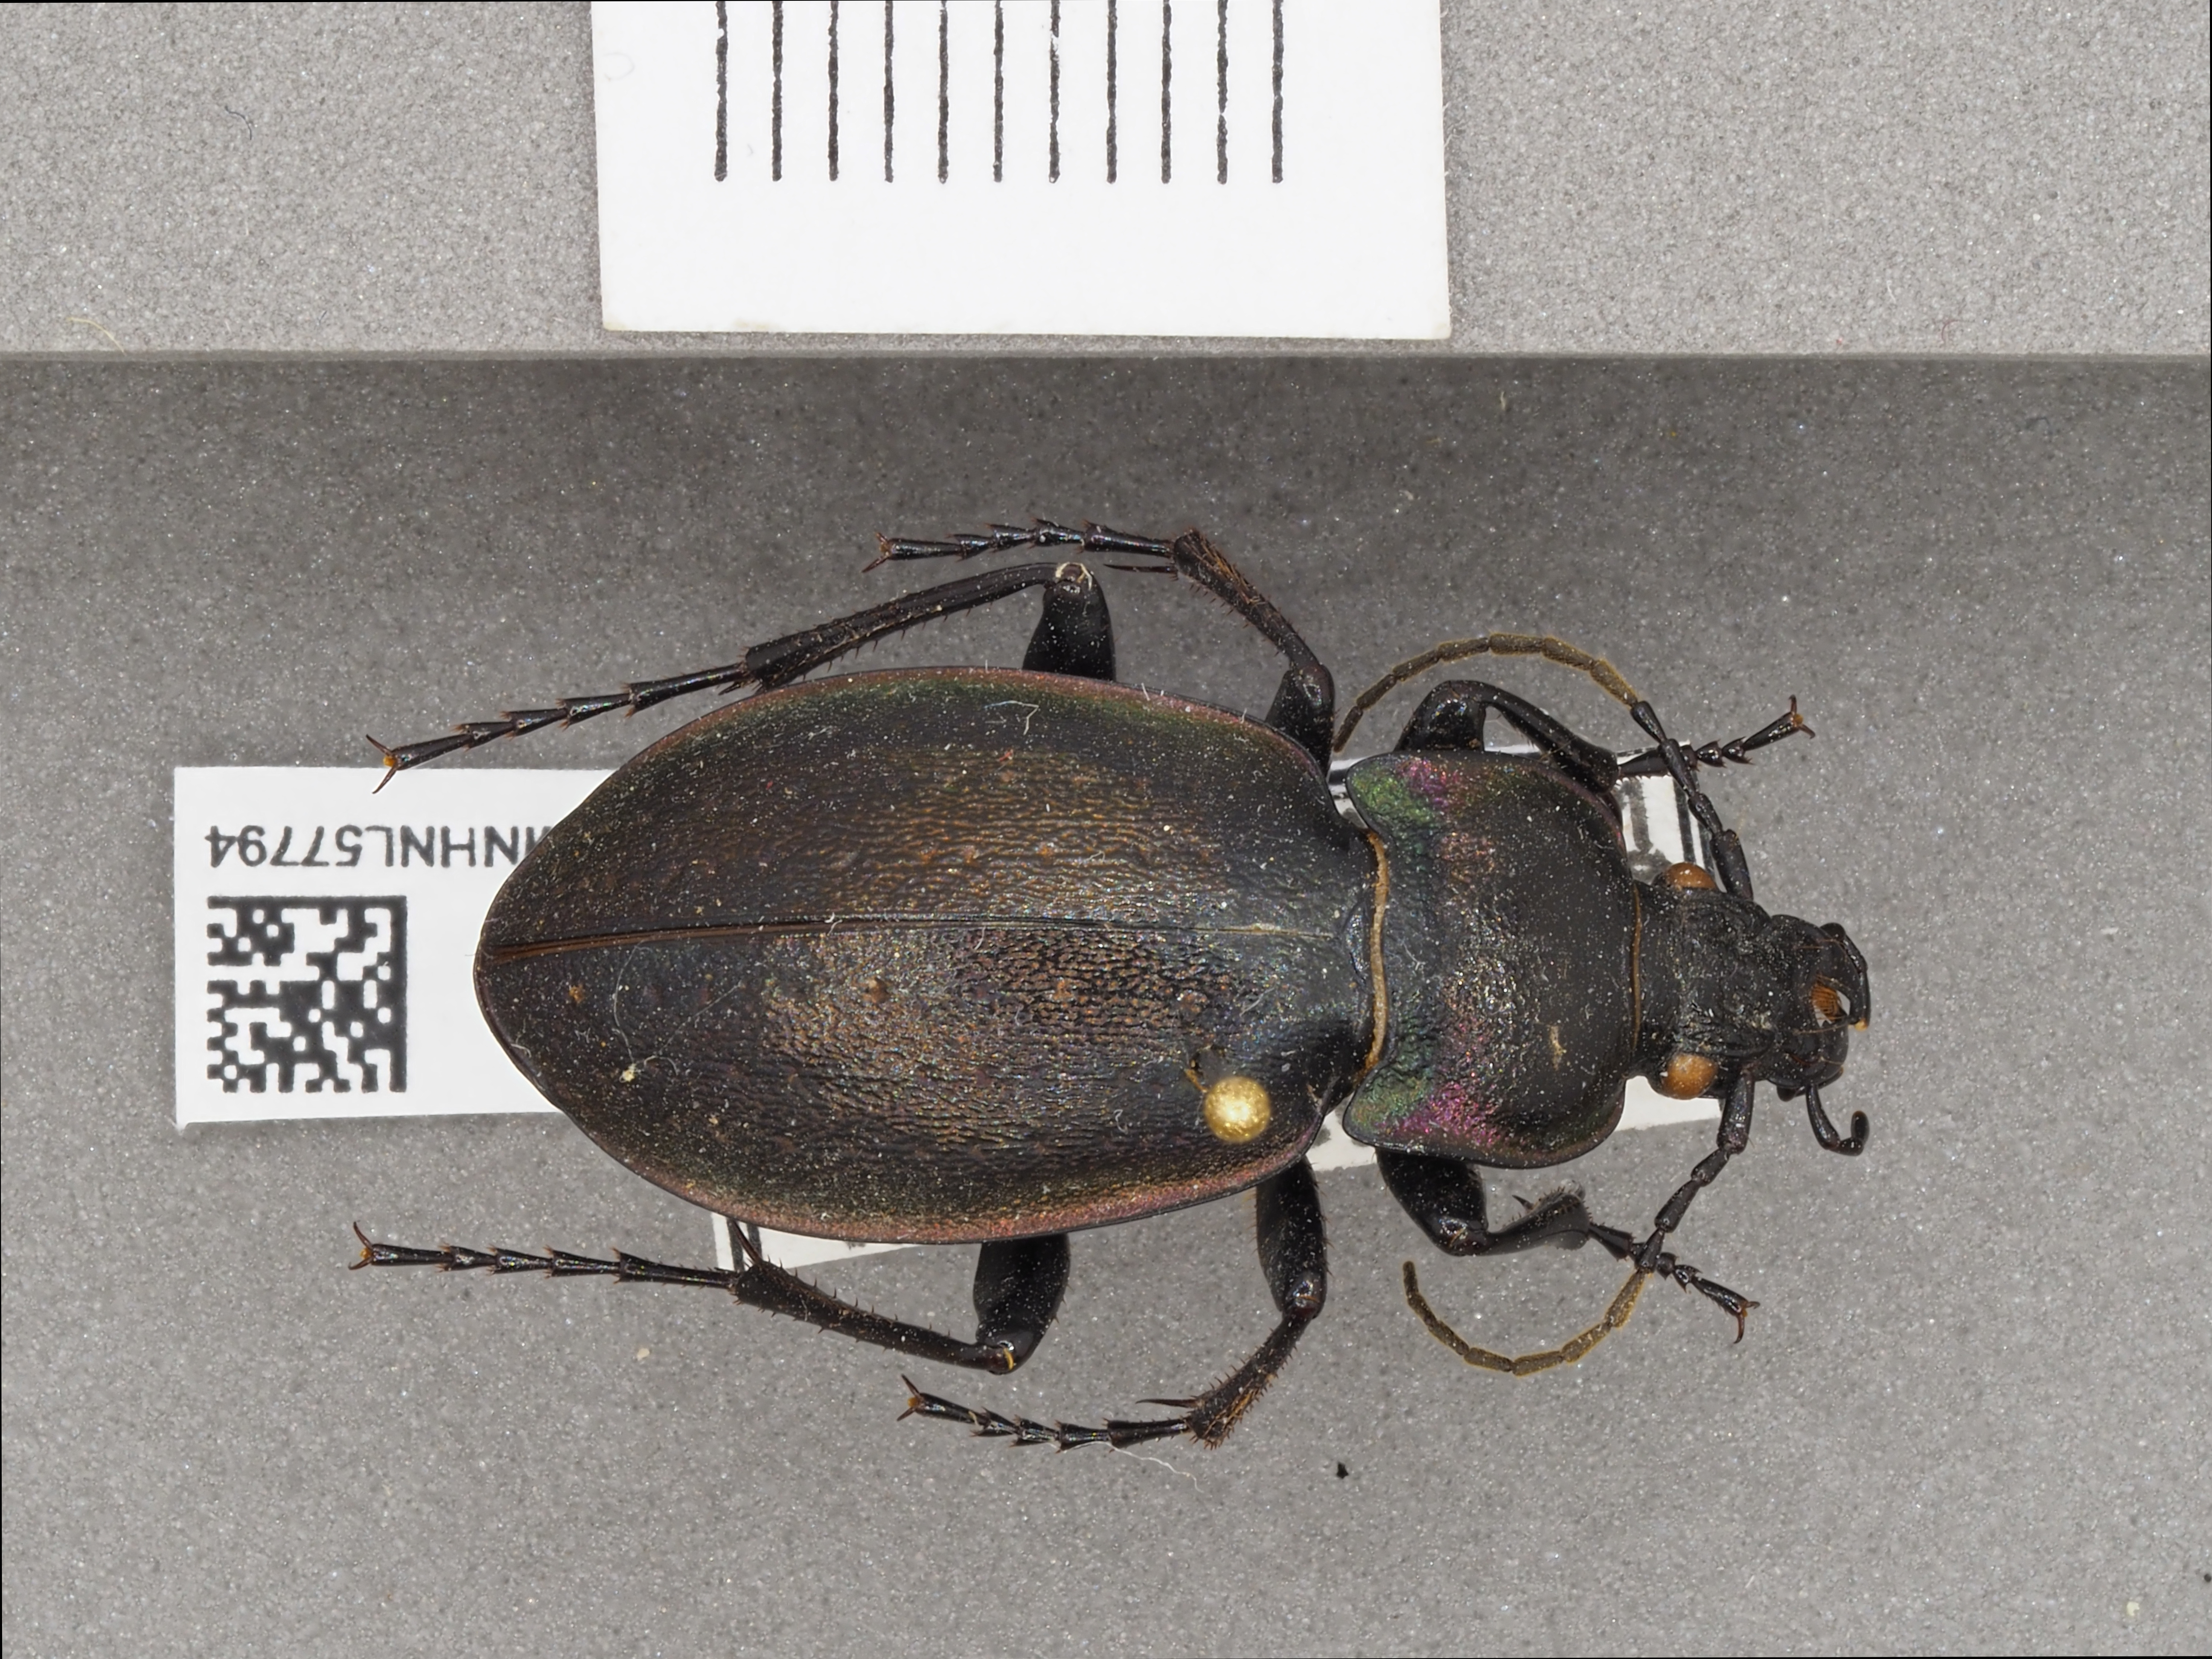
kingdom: Animalia
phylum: Arthropoda
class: Insecta
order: Coleoptera
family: Carabidae
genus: Carabus
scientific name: Carabus nemoralis
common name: European ground beetle
